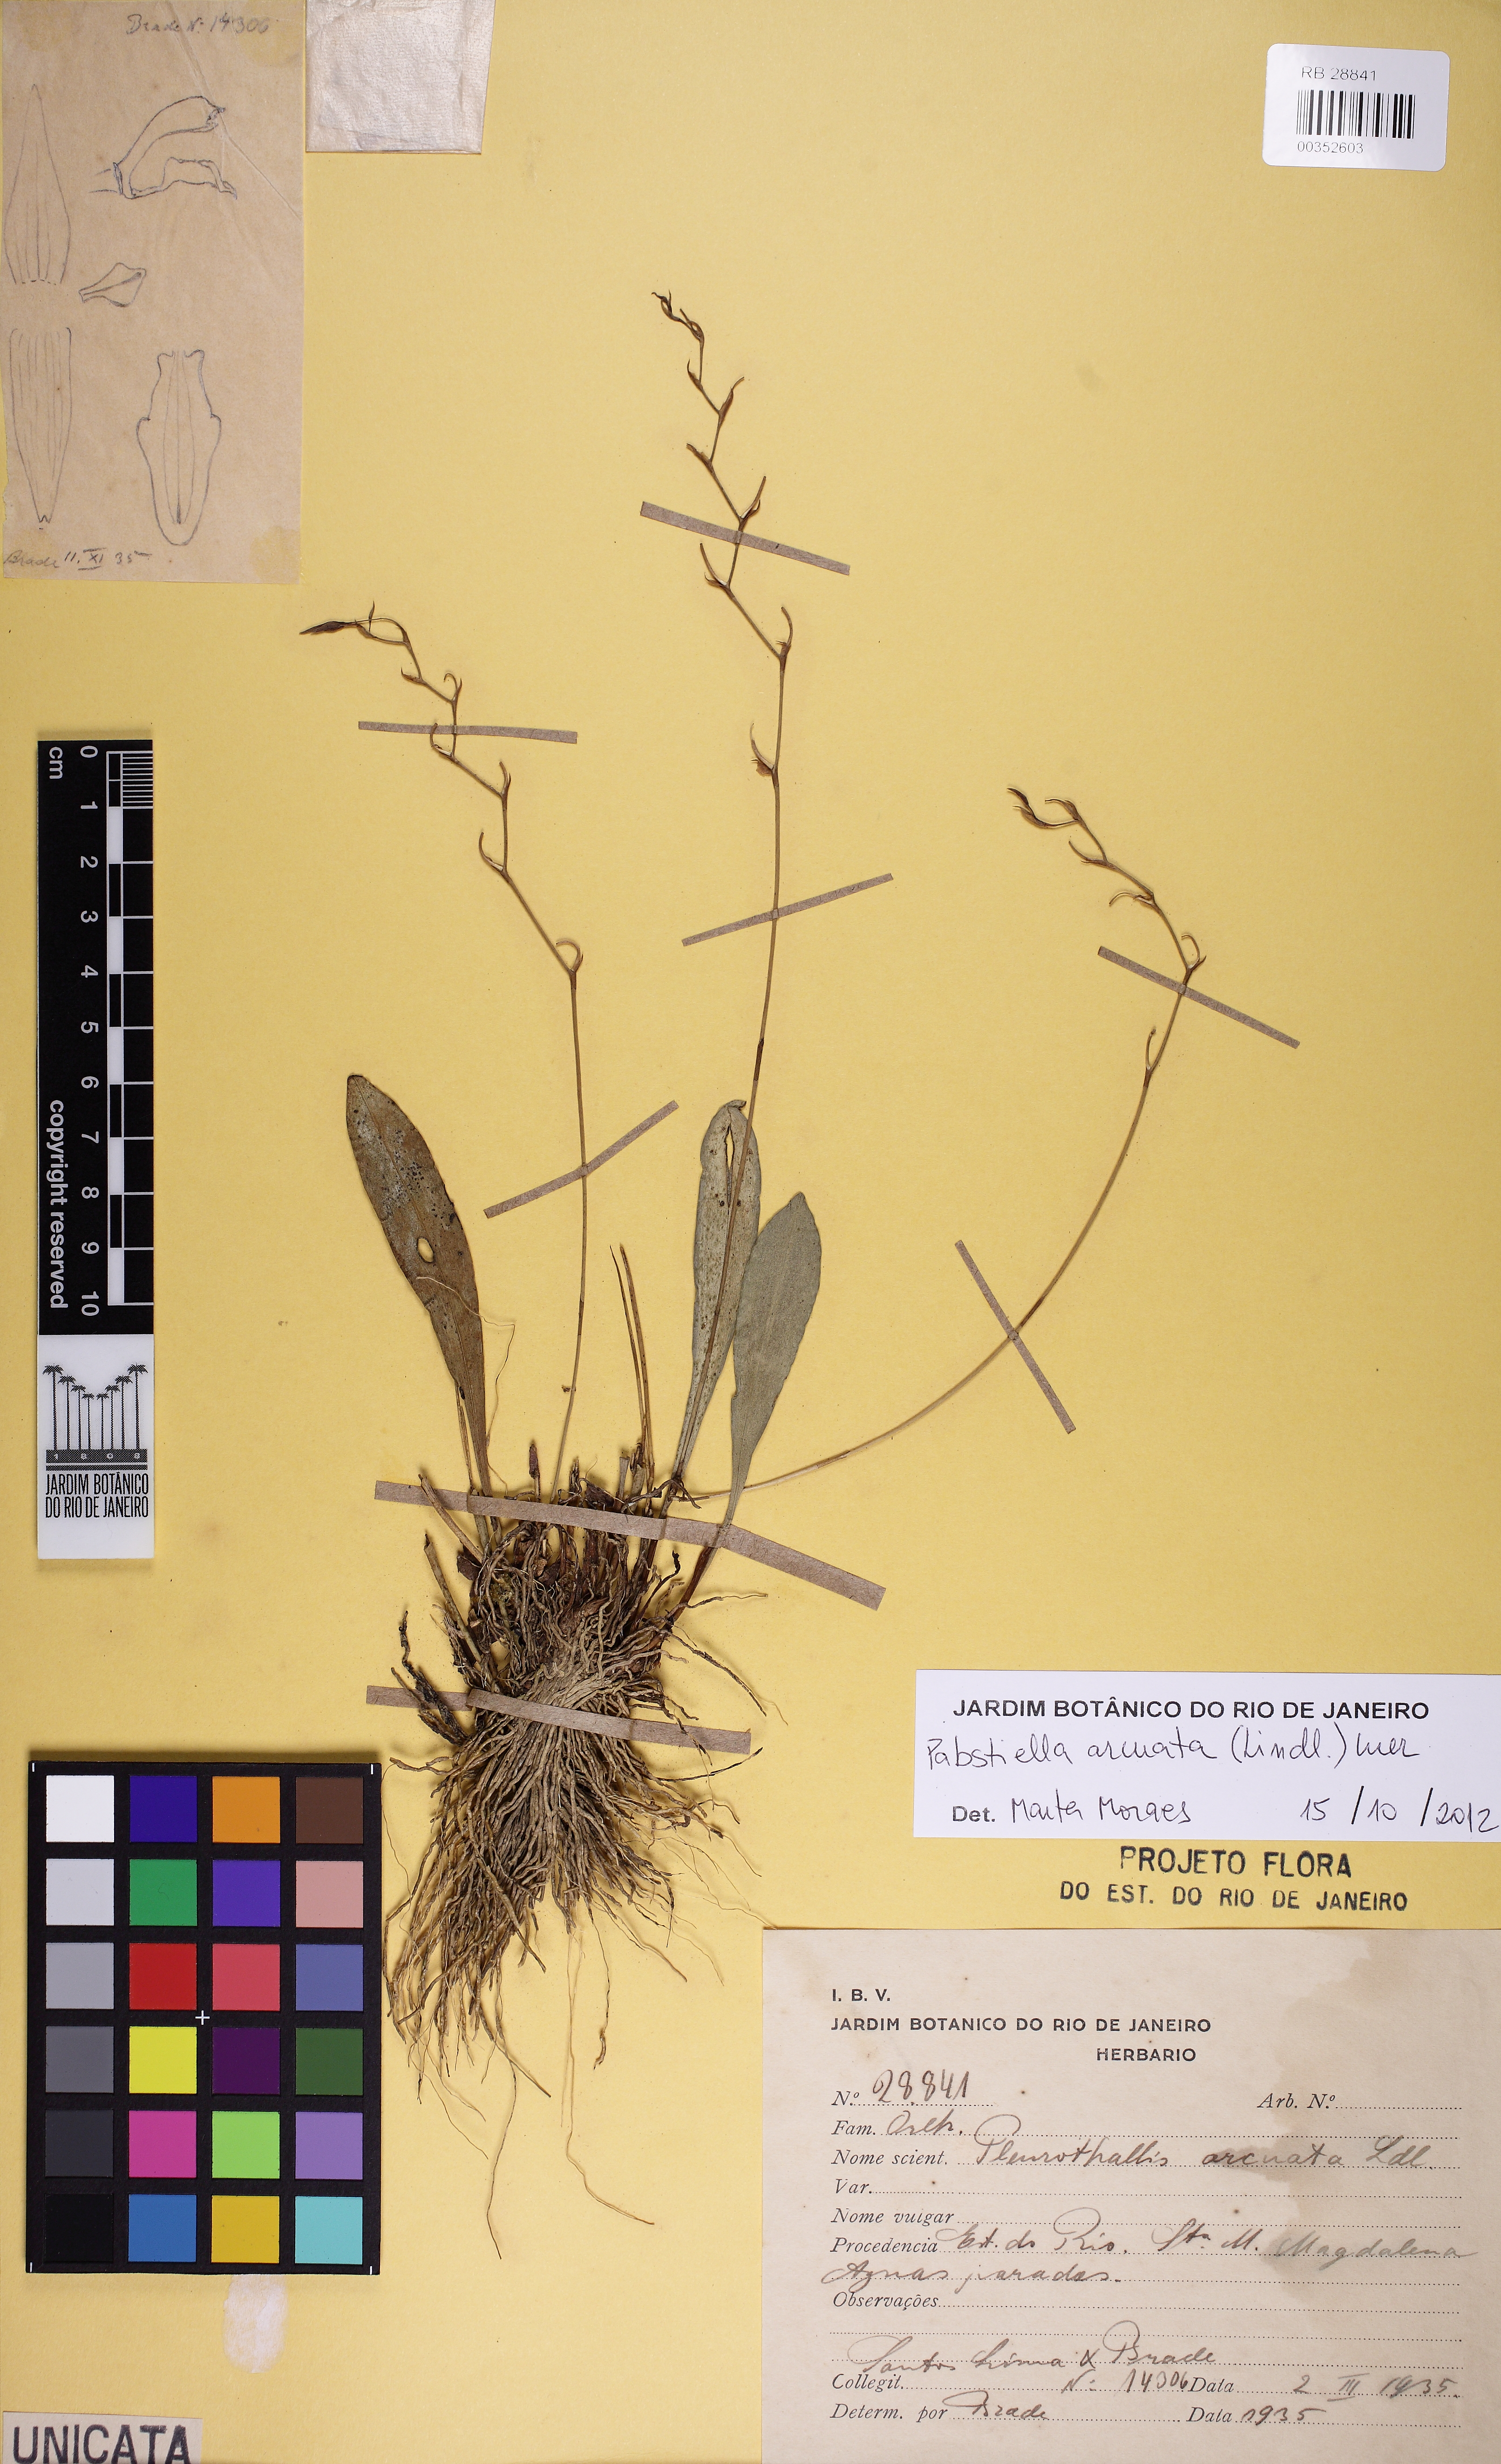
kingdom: Plantae
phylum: Tracheophyta
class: Liliopsida
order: Asparagales
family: Orchidaceae
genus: Pabstiella
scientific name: Pabstiella arcuata
